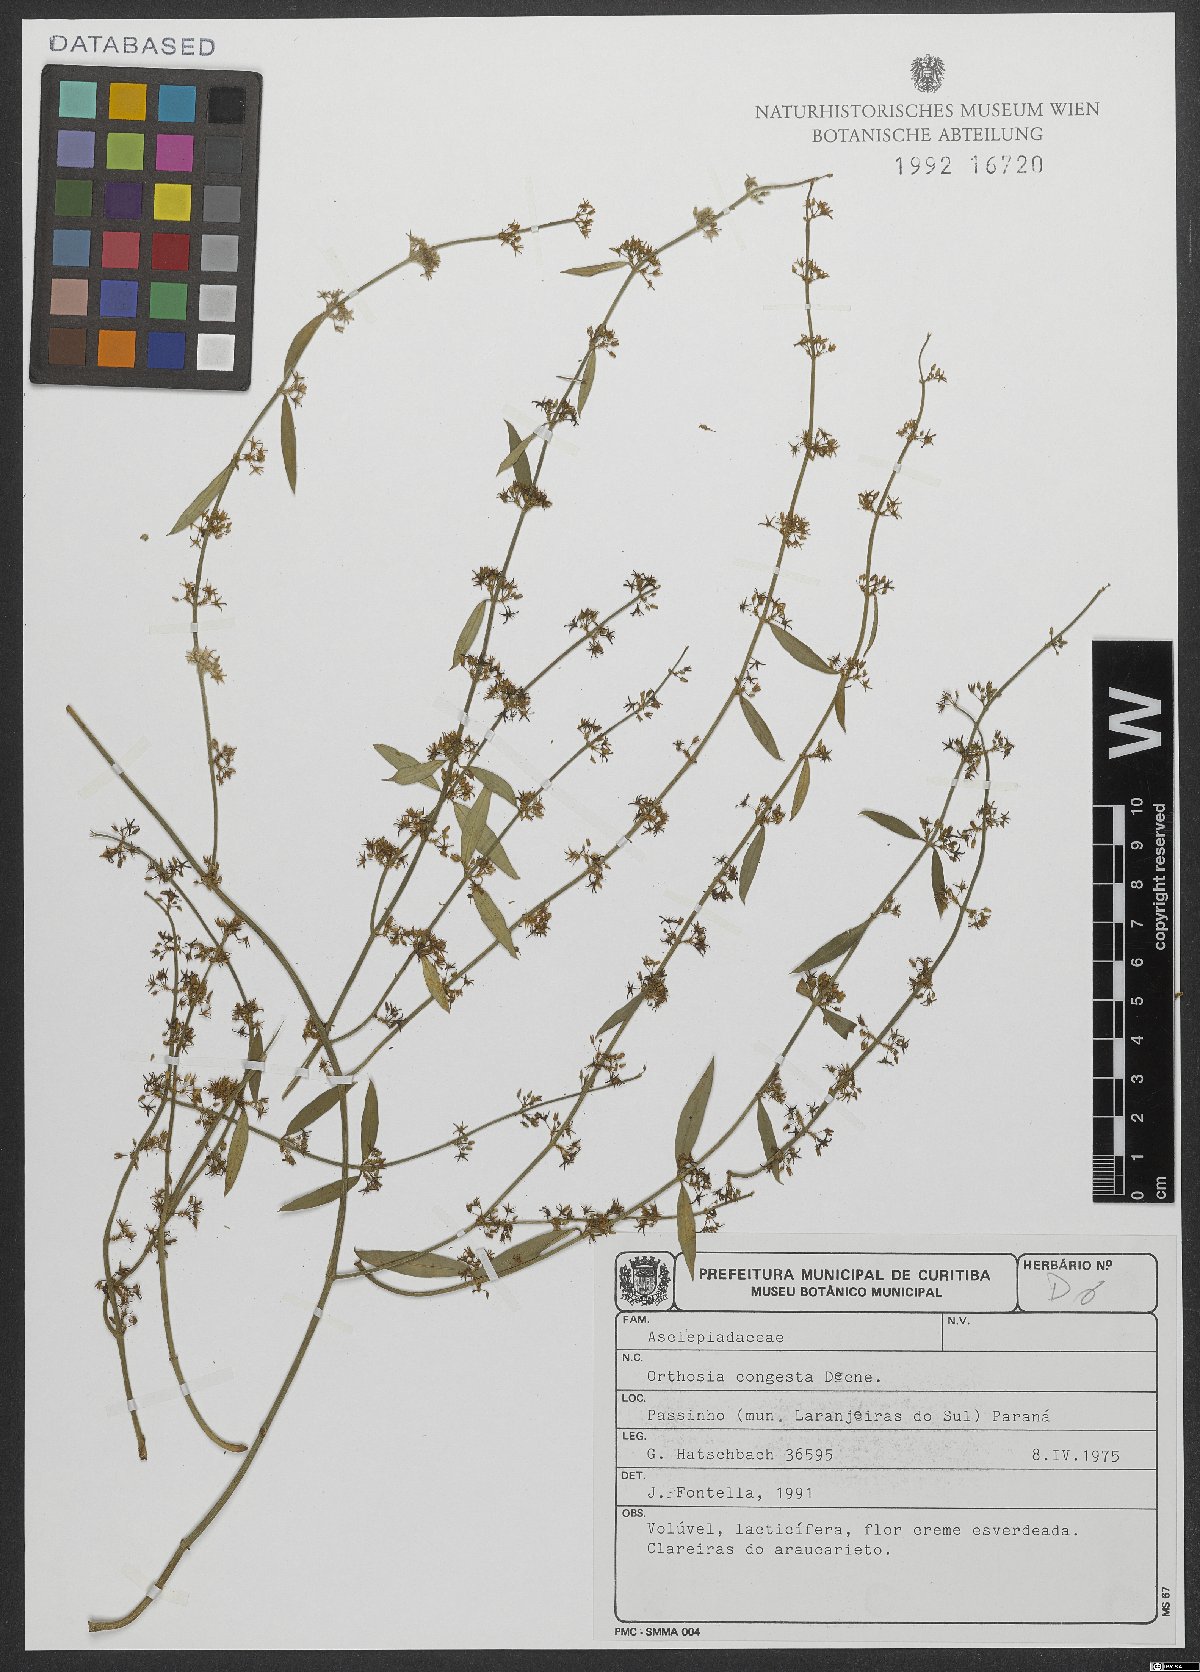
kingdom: Plantae
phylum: Tracheophyta
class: Magnoliopsida
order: Gentianales
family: Apocynaceae
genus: Orthosia
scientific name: Orthosia congesta
